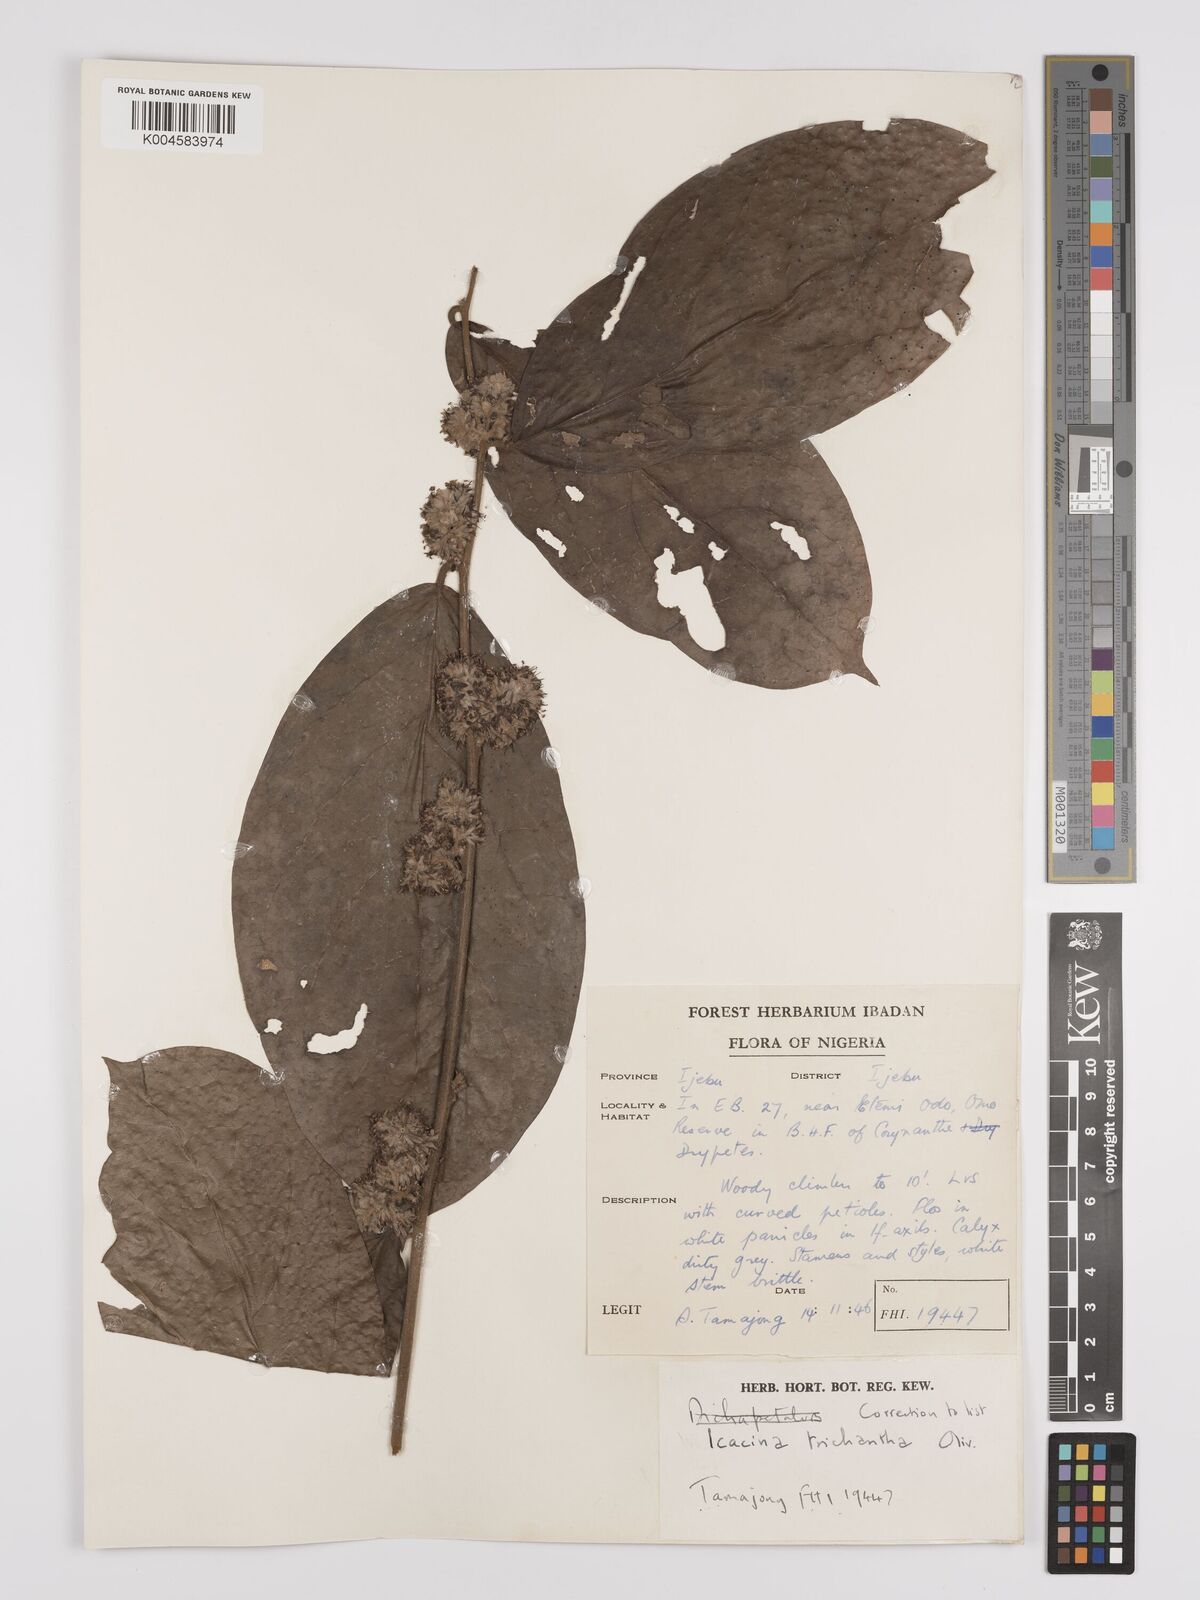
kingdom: Plantae
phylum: Tracheophyta
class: Magnoliopsida
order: Icacinales
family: Icacinaceae
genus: Icacina
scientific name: Icacina trichantha
